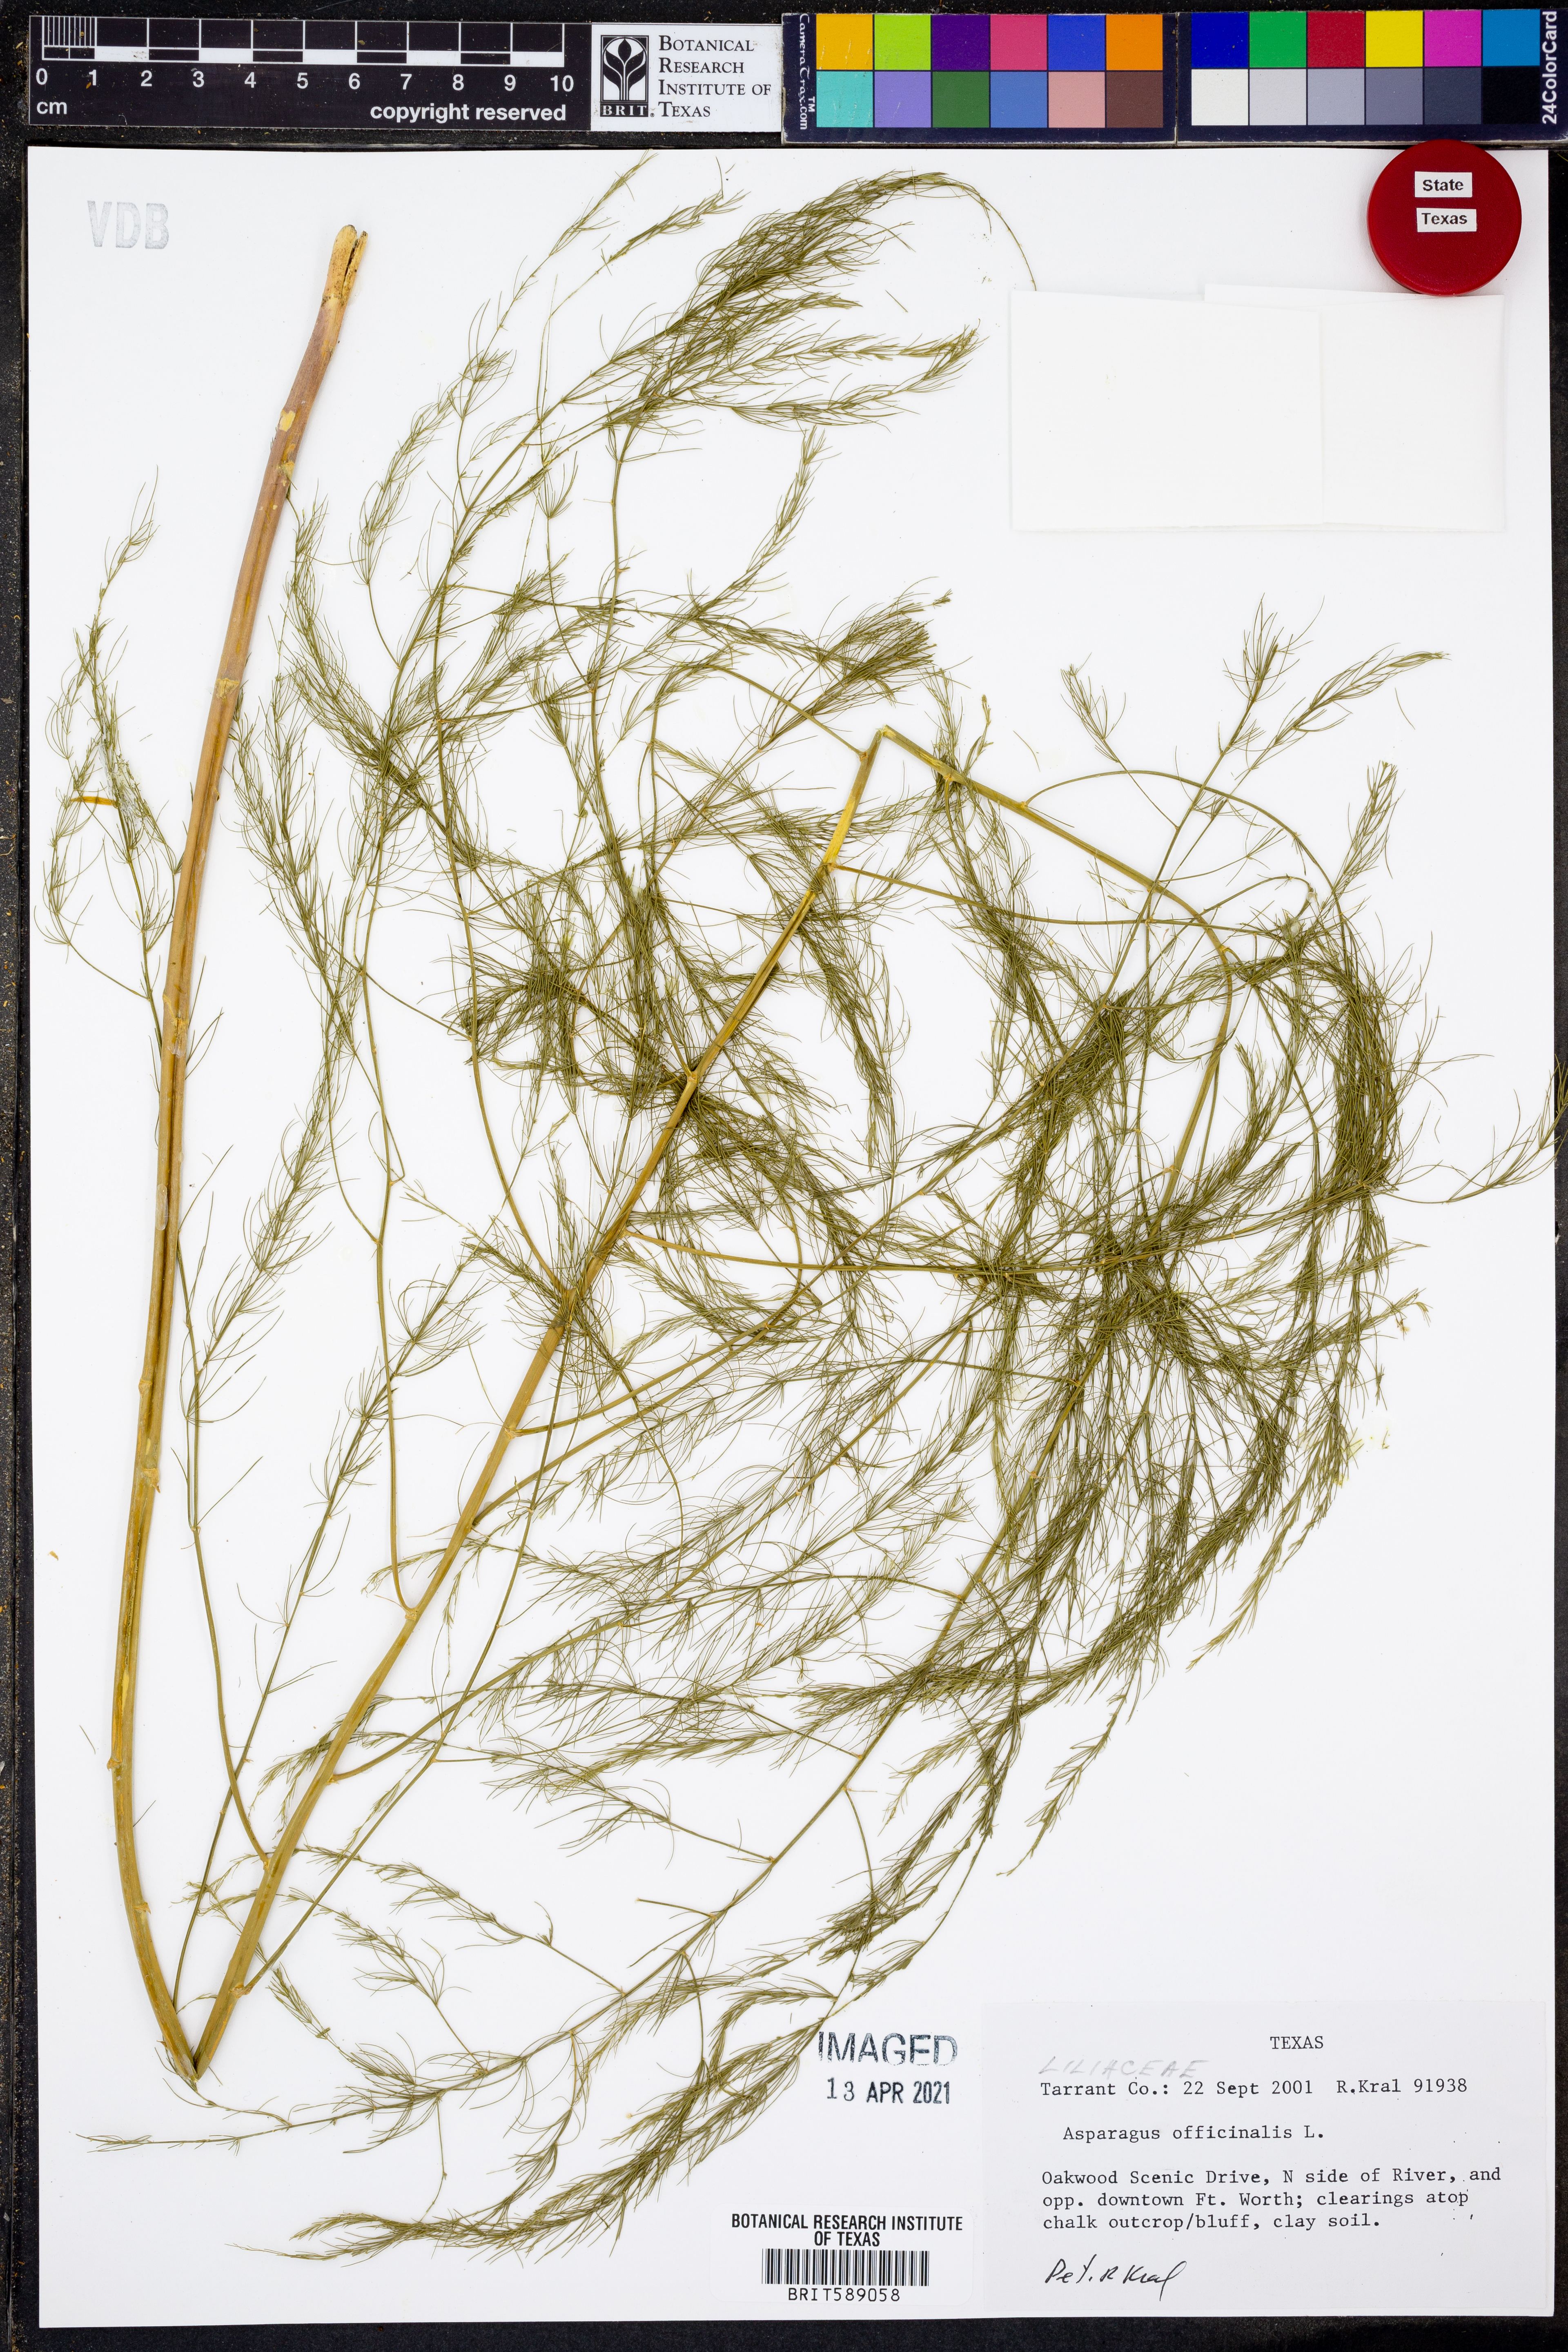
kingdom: Plantae
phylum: Tracheophyta
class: Liliopsida
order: Asparagales
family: Asparagaceae
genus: Asparagus
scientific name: Asparagus officinalis
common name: Garden asparagus
